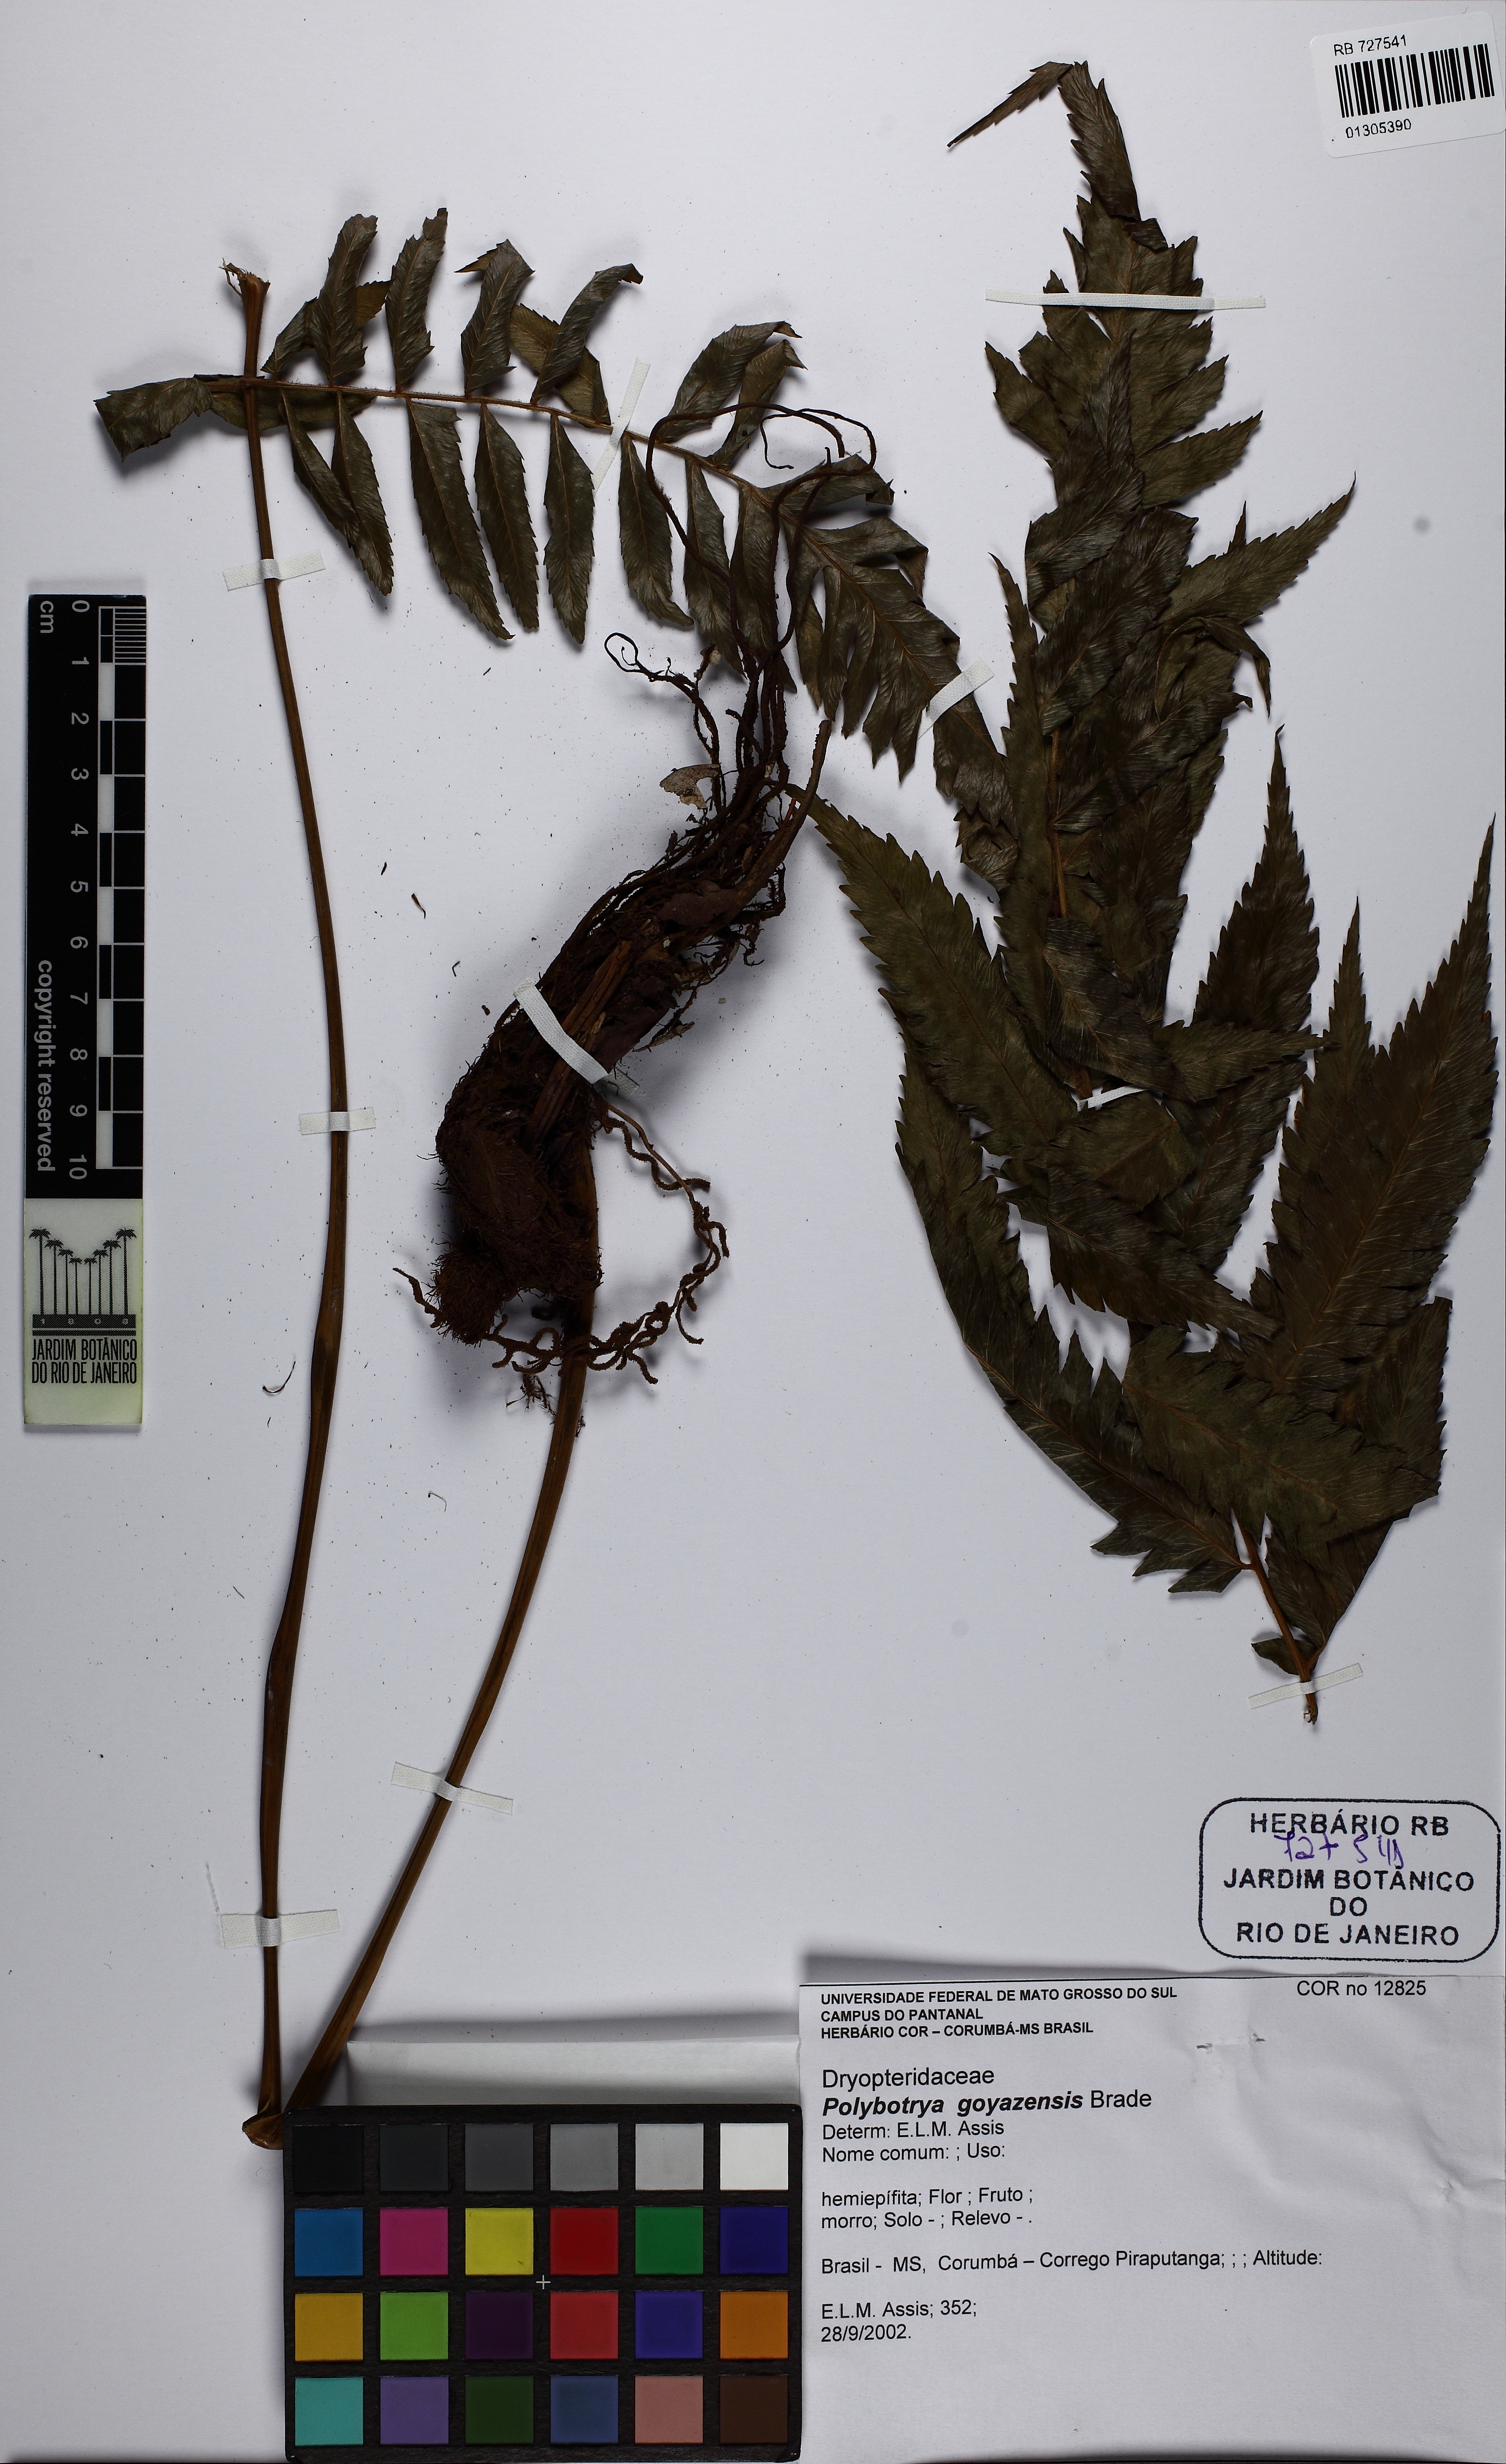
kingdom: Plantae
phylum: Tracheophyta
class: Polypodiopsida
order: Polypodiales
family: Dryopteridaceae
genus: Polybotrya
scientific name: Polybotrya goyazensis
